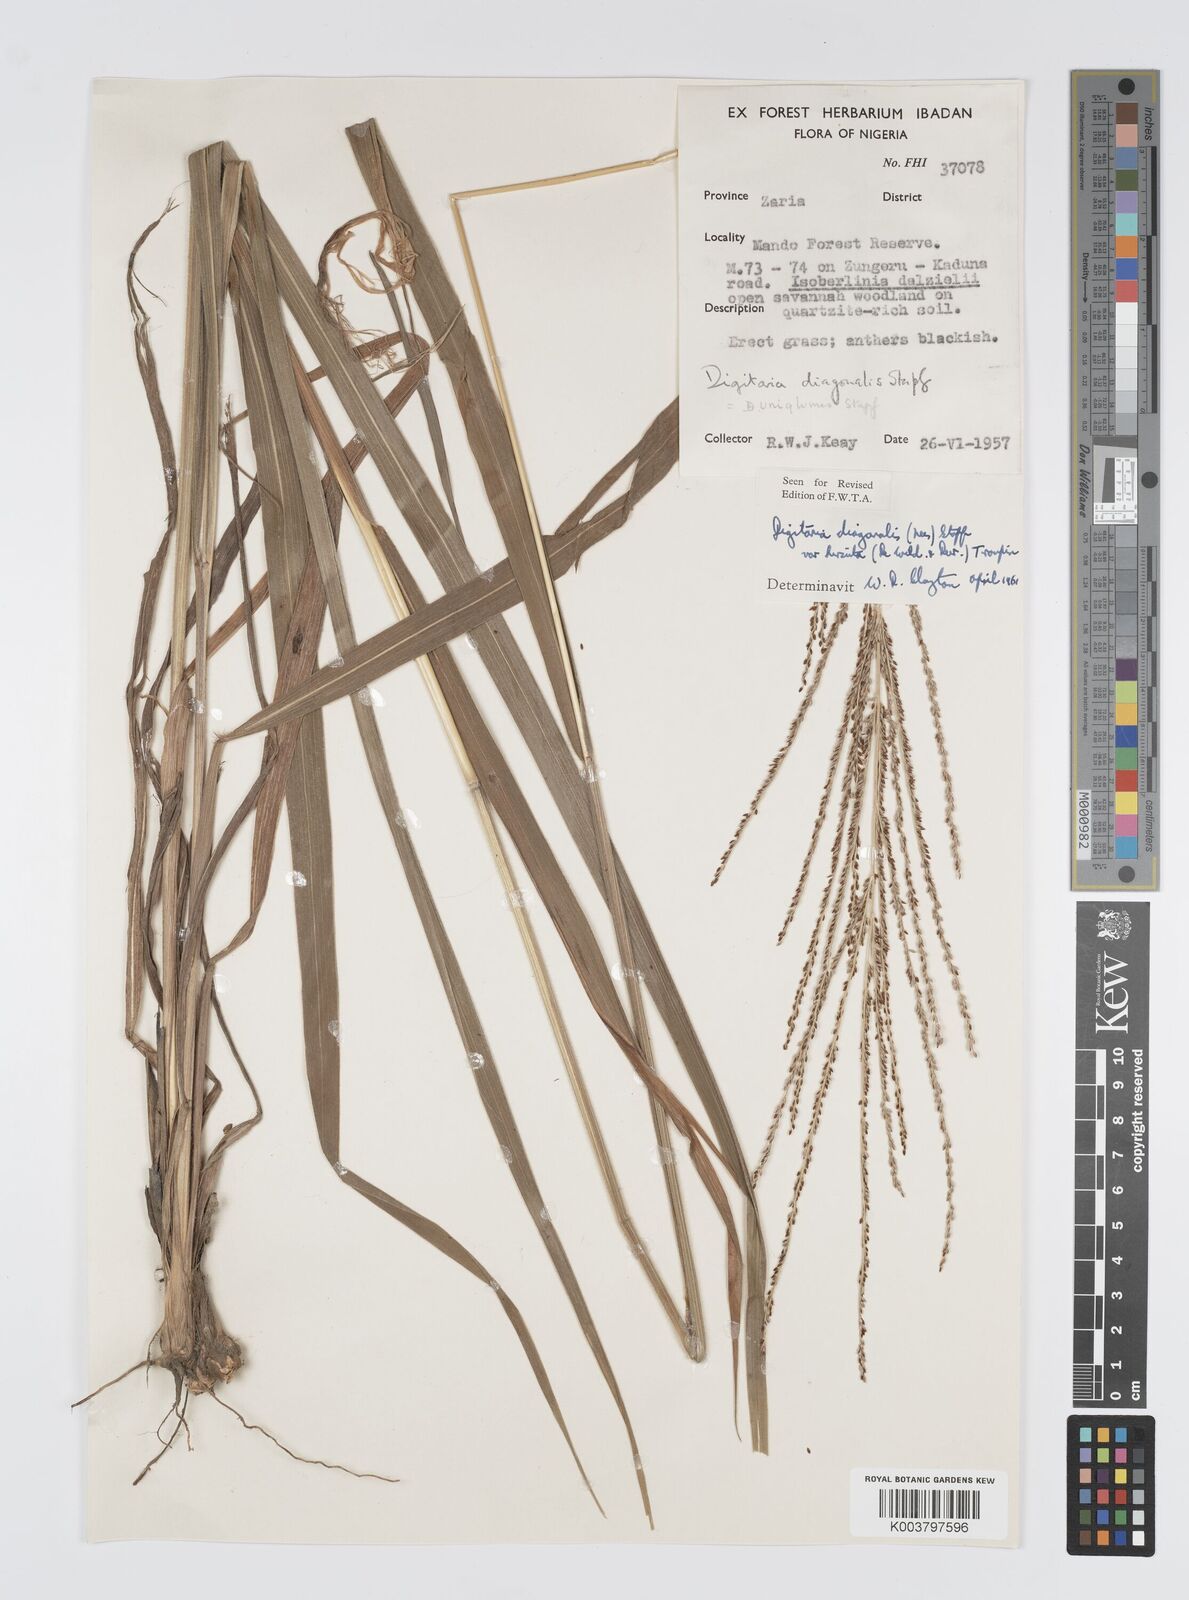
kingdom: Plantae
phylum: Tracheophyta
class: Liliopsida
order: Poales
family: Poaceae
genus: Digitaria
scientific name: Digitaria diagonalis
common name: Brown-seed finger grass
